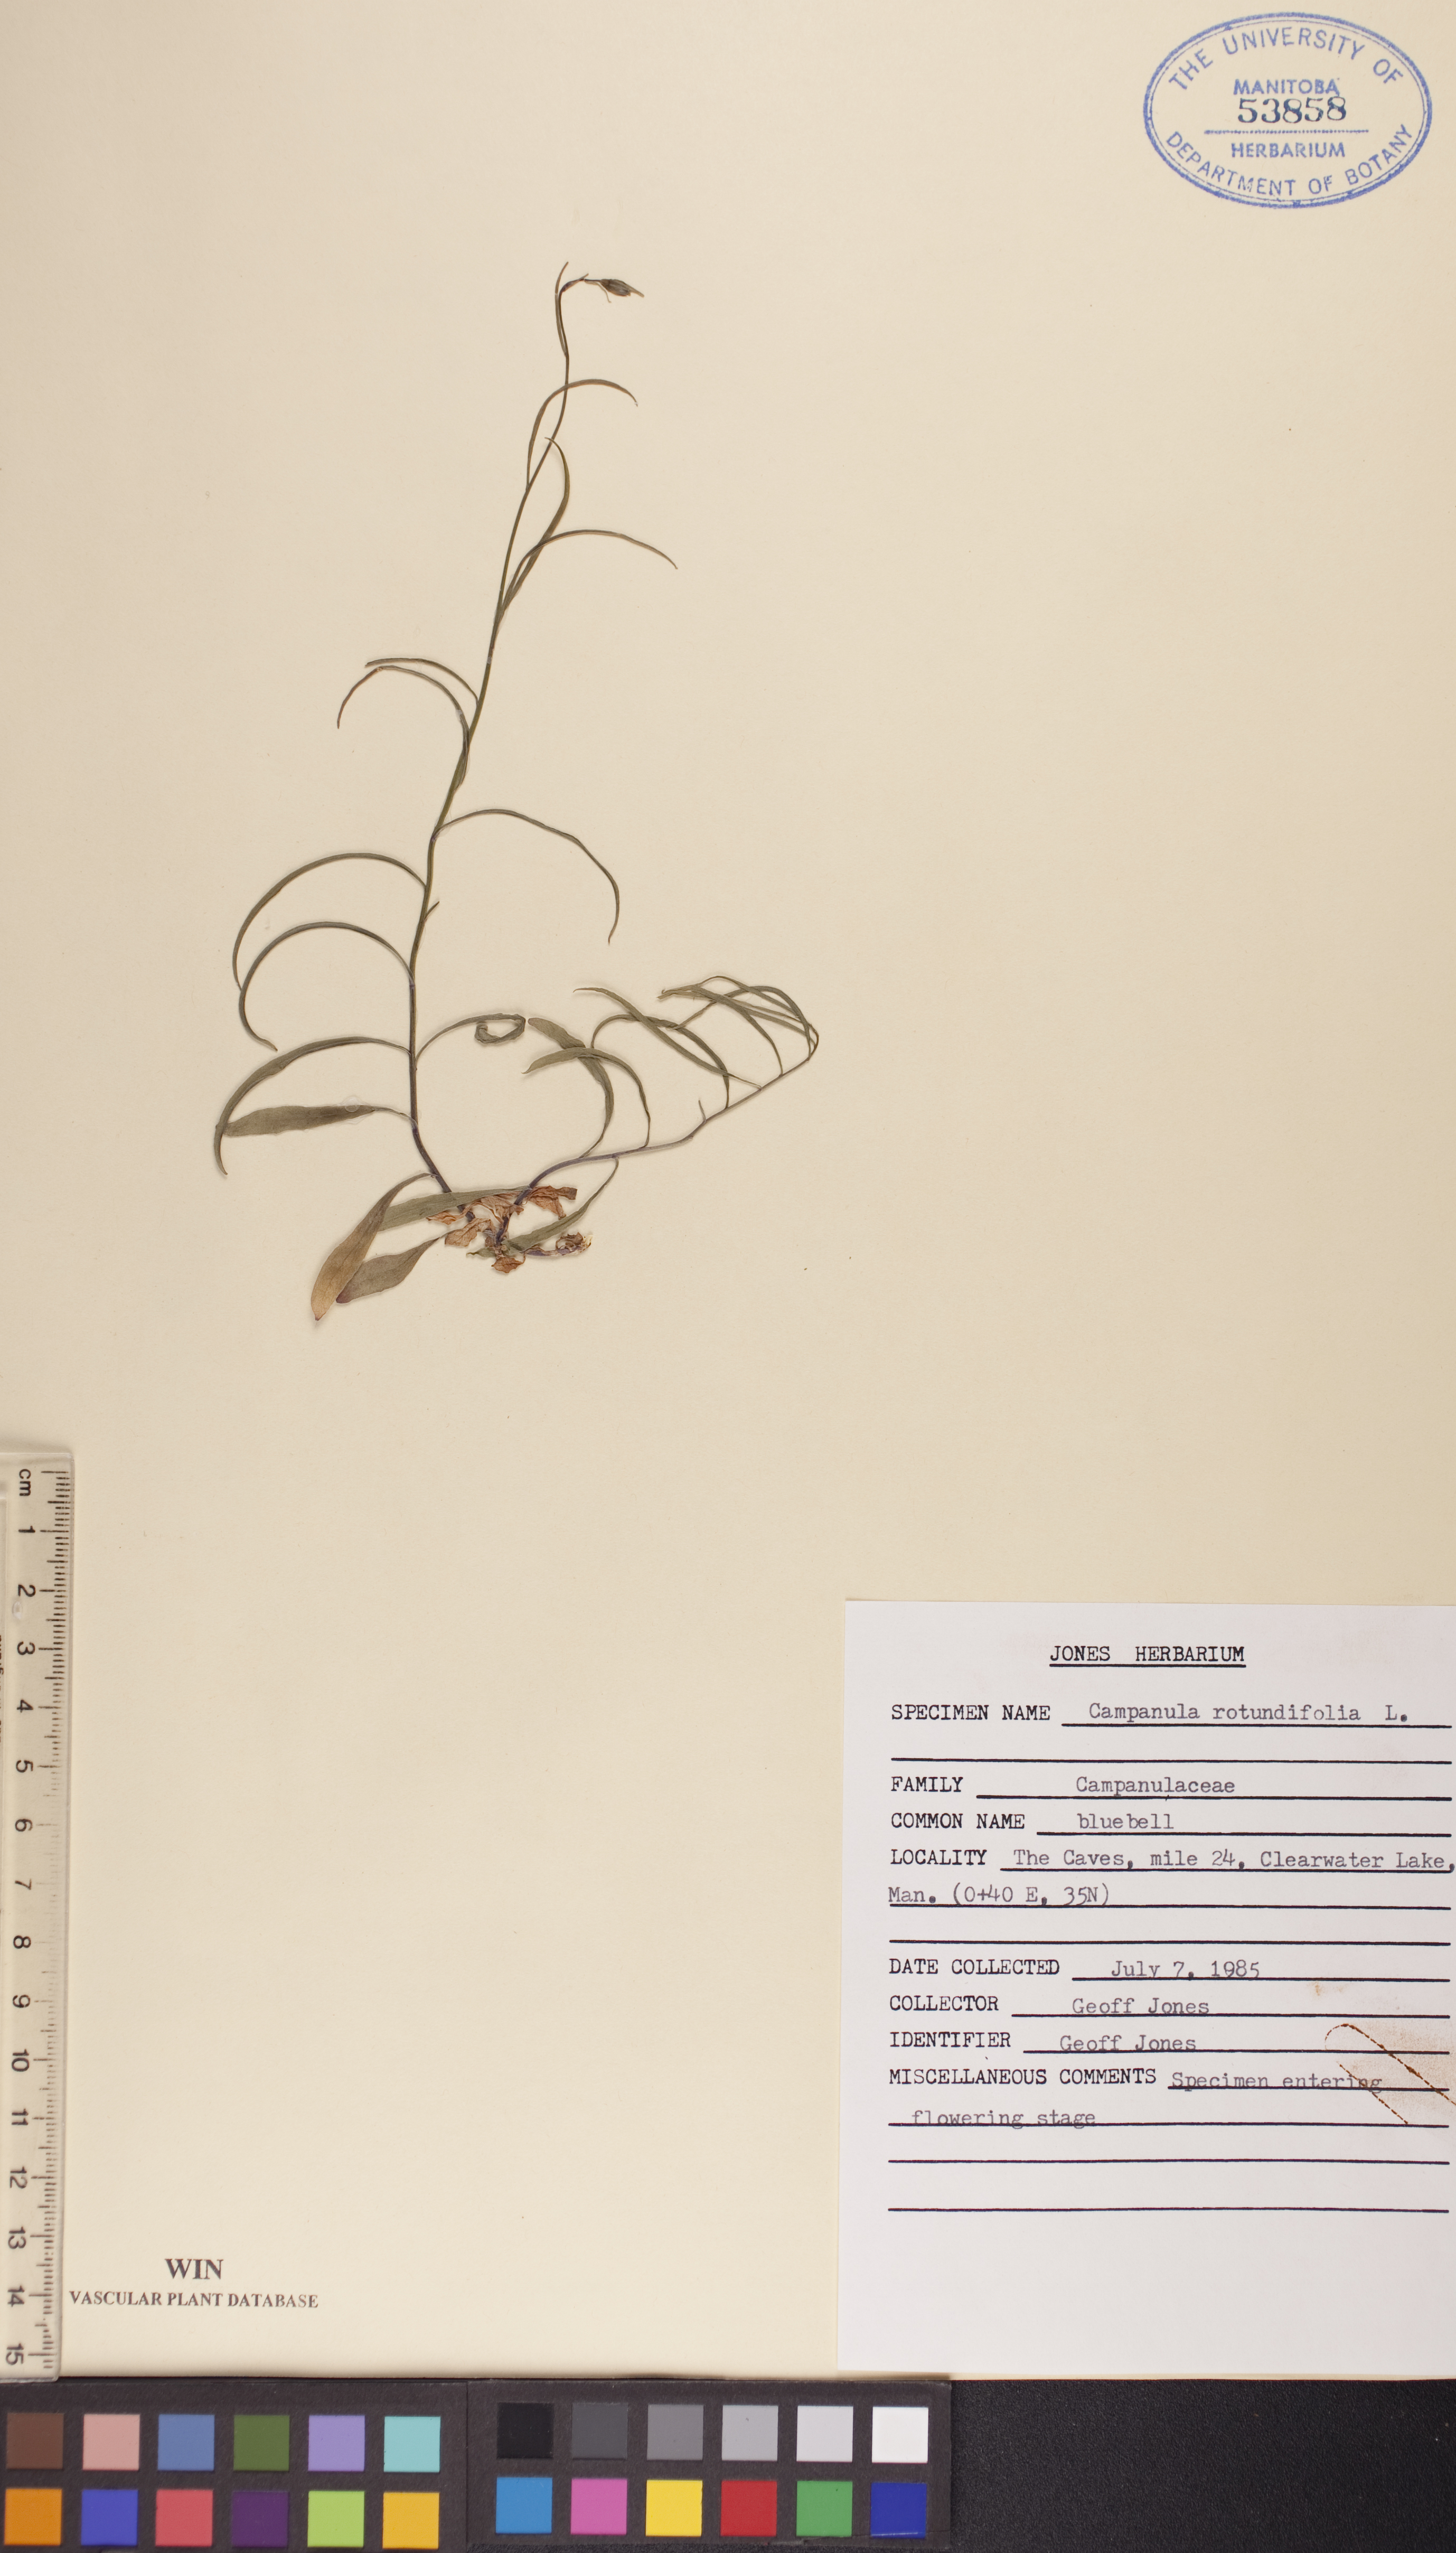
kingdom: Plantae
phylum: Tracheophyta
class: Magnoliopsida
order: Asterales
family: Campanulaceae
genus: Campanula
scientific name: Campanula rotundifolia
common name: Harebell
